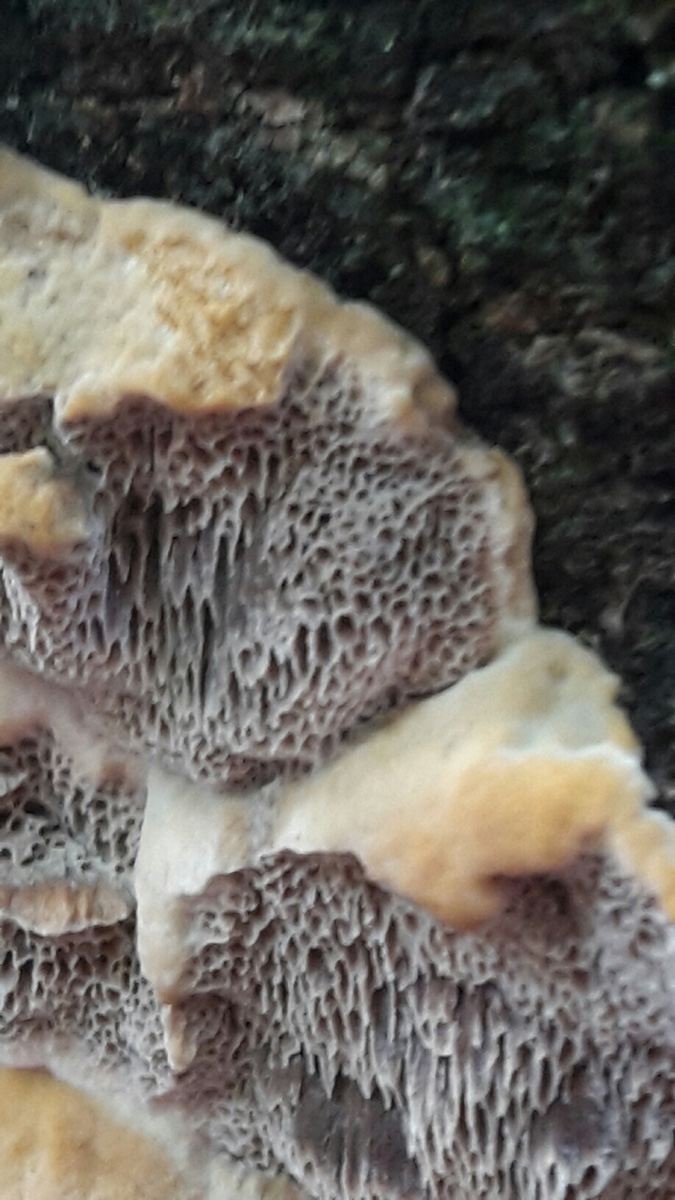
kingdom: Fungi
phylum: Basidiomycota
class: Agaricomycetes
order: Hymenochaetales
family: Hymenochaetaceae
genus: Mensularia
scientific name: Mensularia nodulosa
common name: bøge-spejlporesvamp
